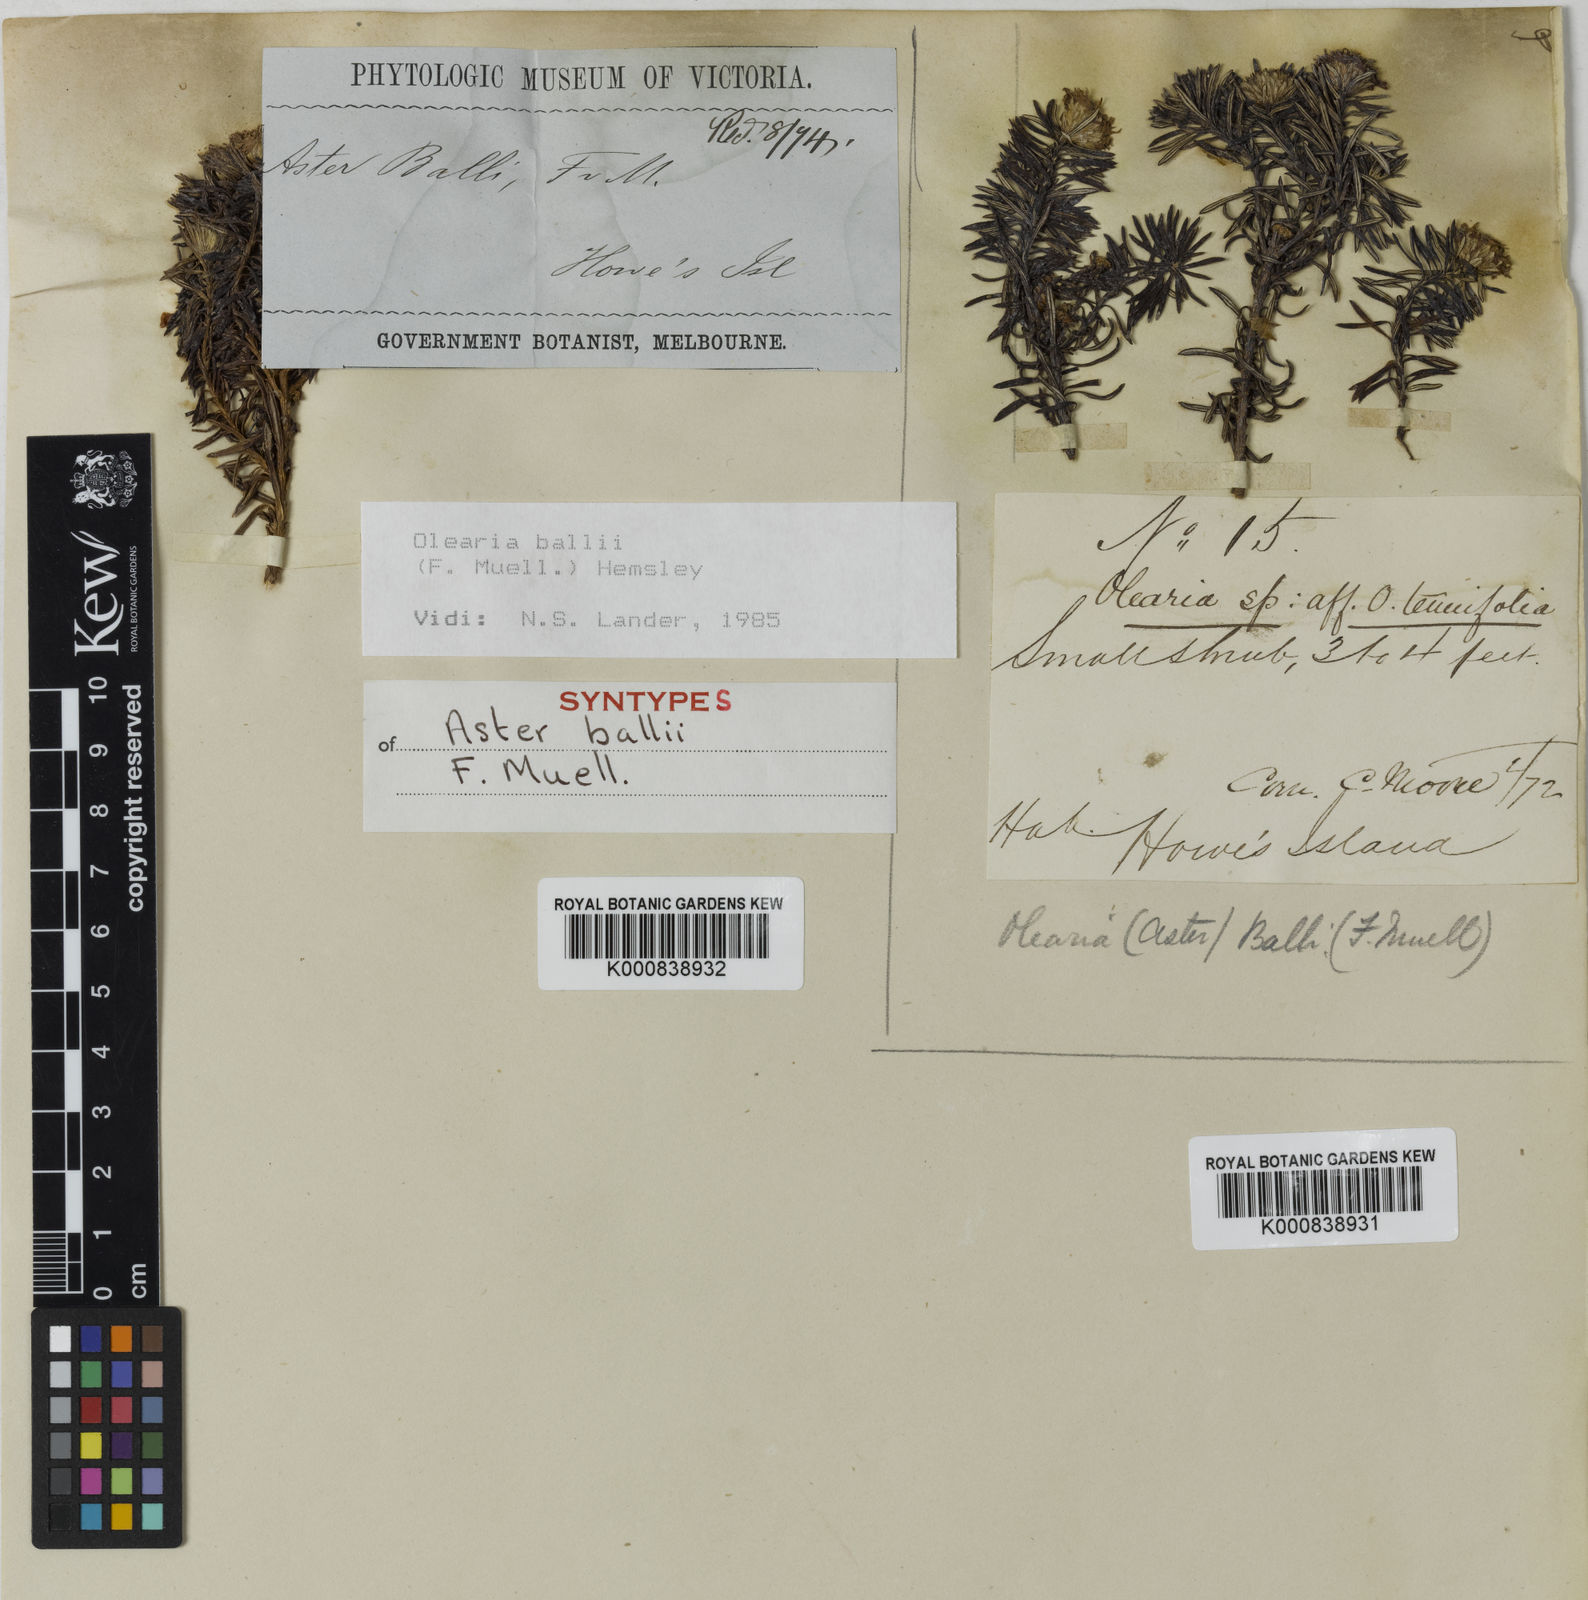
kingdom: Plantae
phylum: Tracheophyta
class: Magnoliopsida
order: Asterales
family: Asteraceae
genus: Olearia
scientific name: Olearia ballii
